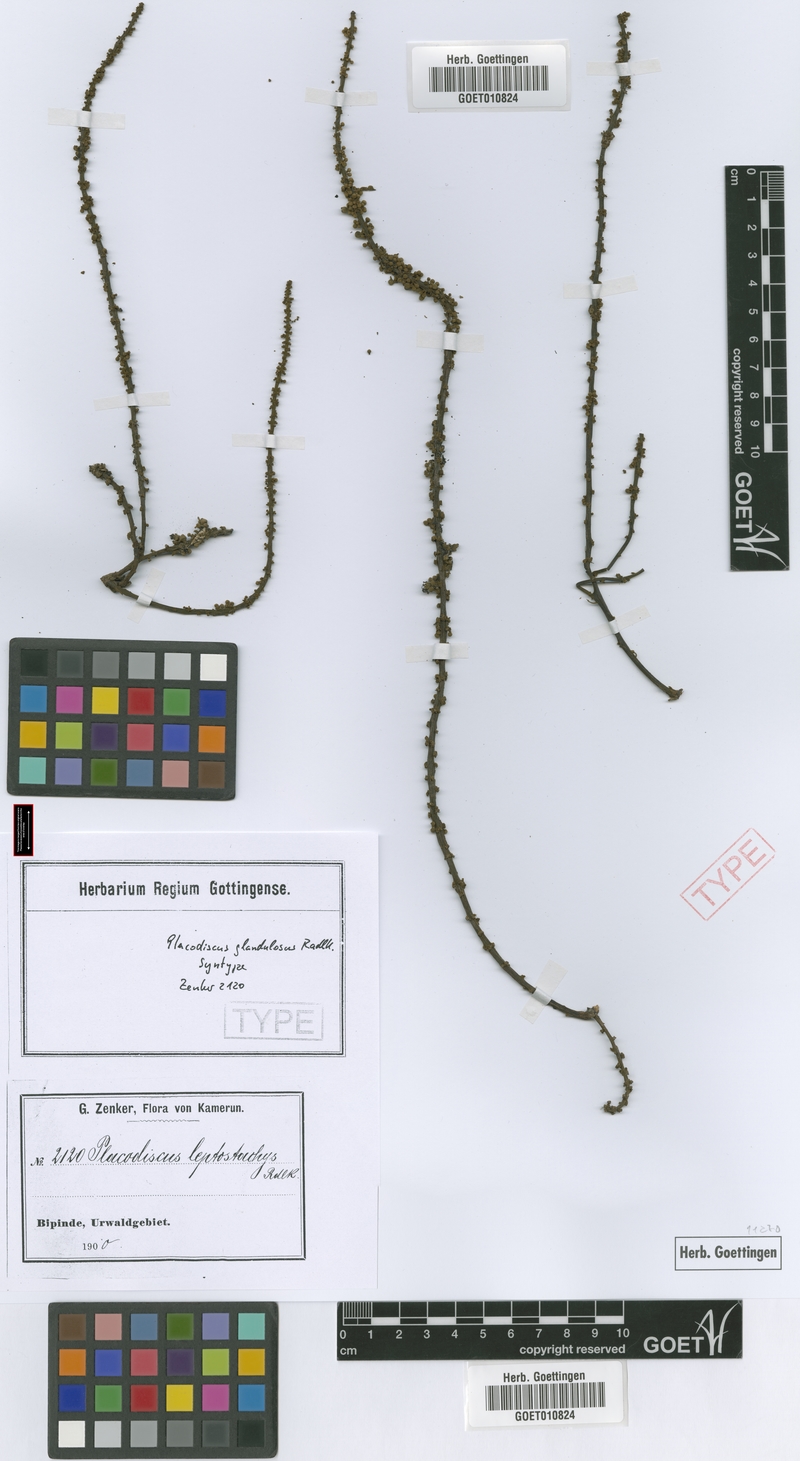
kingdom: Plantae
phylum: Tracheophyta
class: Magnoliopsida
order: Sapindales
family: Sapindaceae
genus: Placodiscus
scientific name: Placodiscus glandulosus
